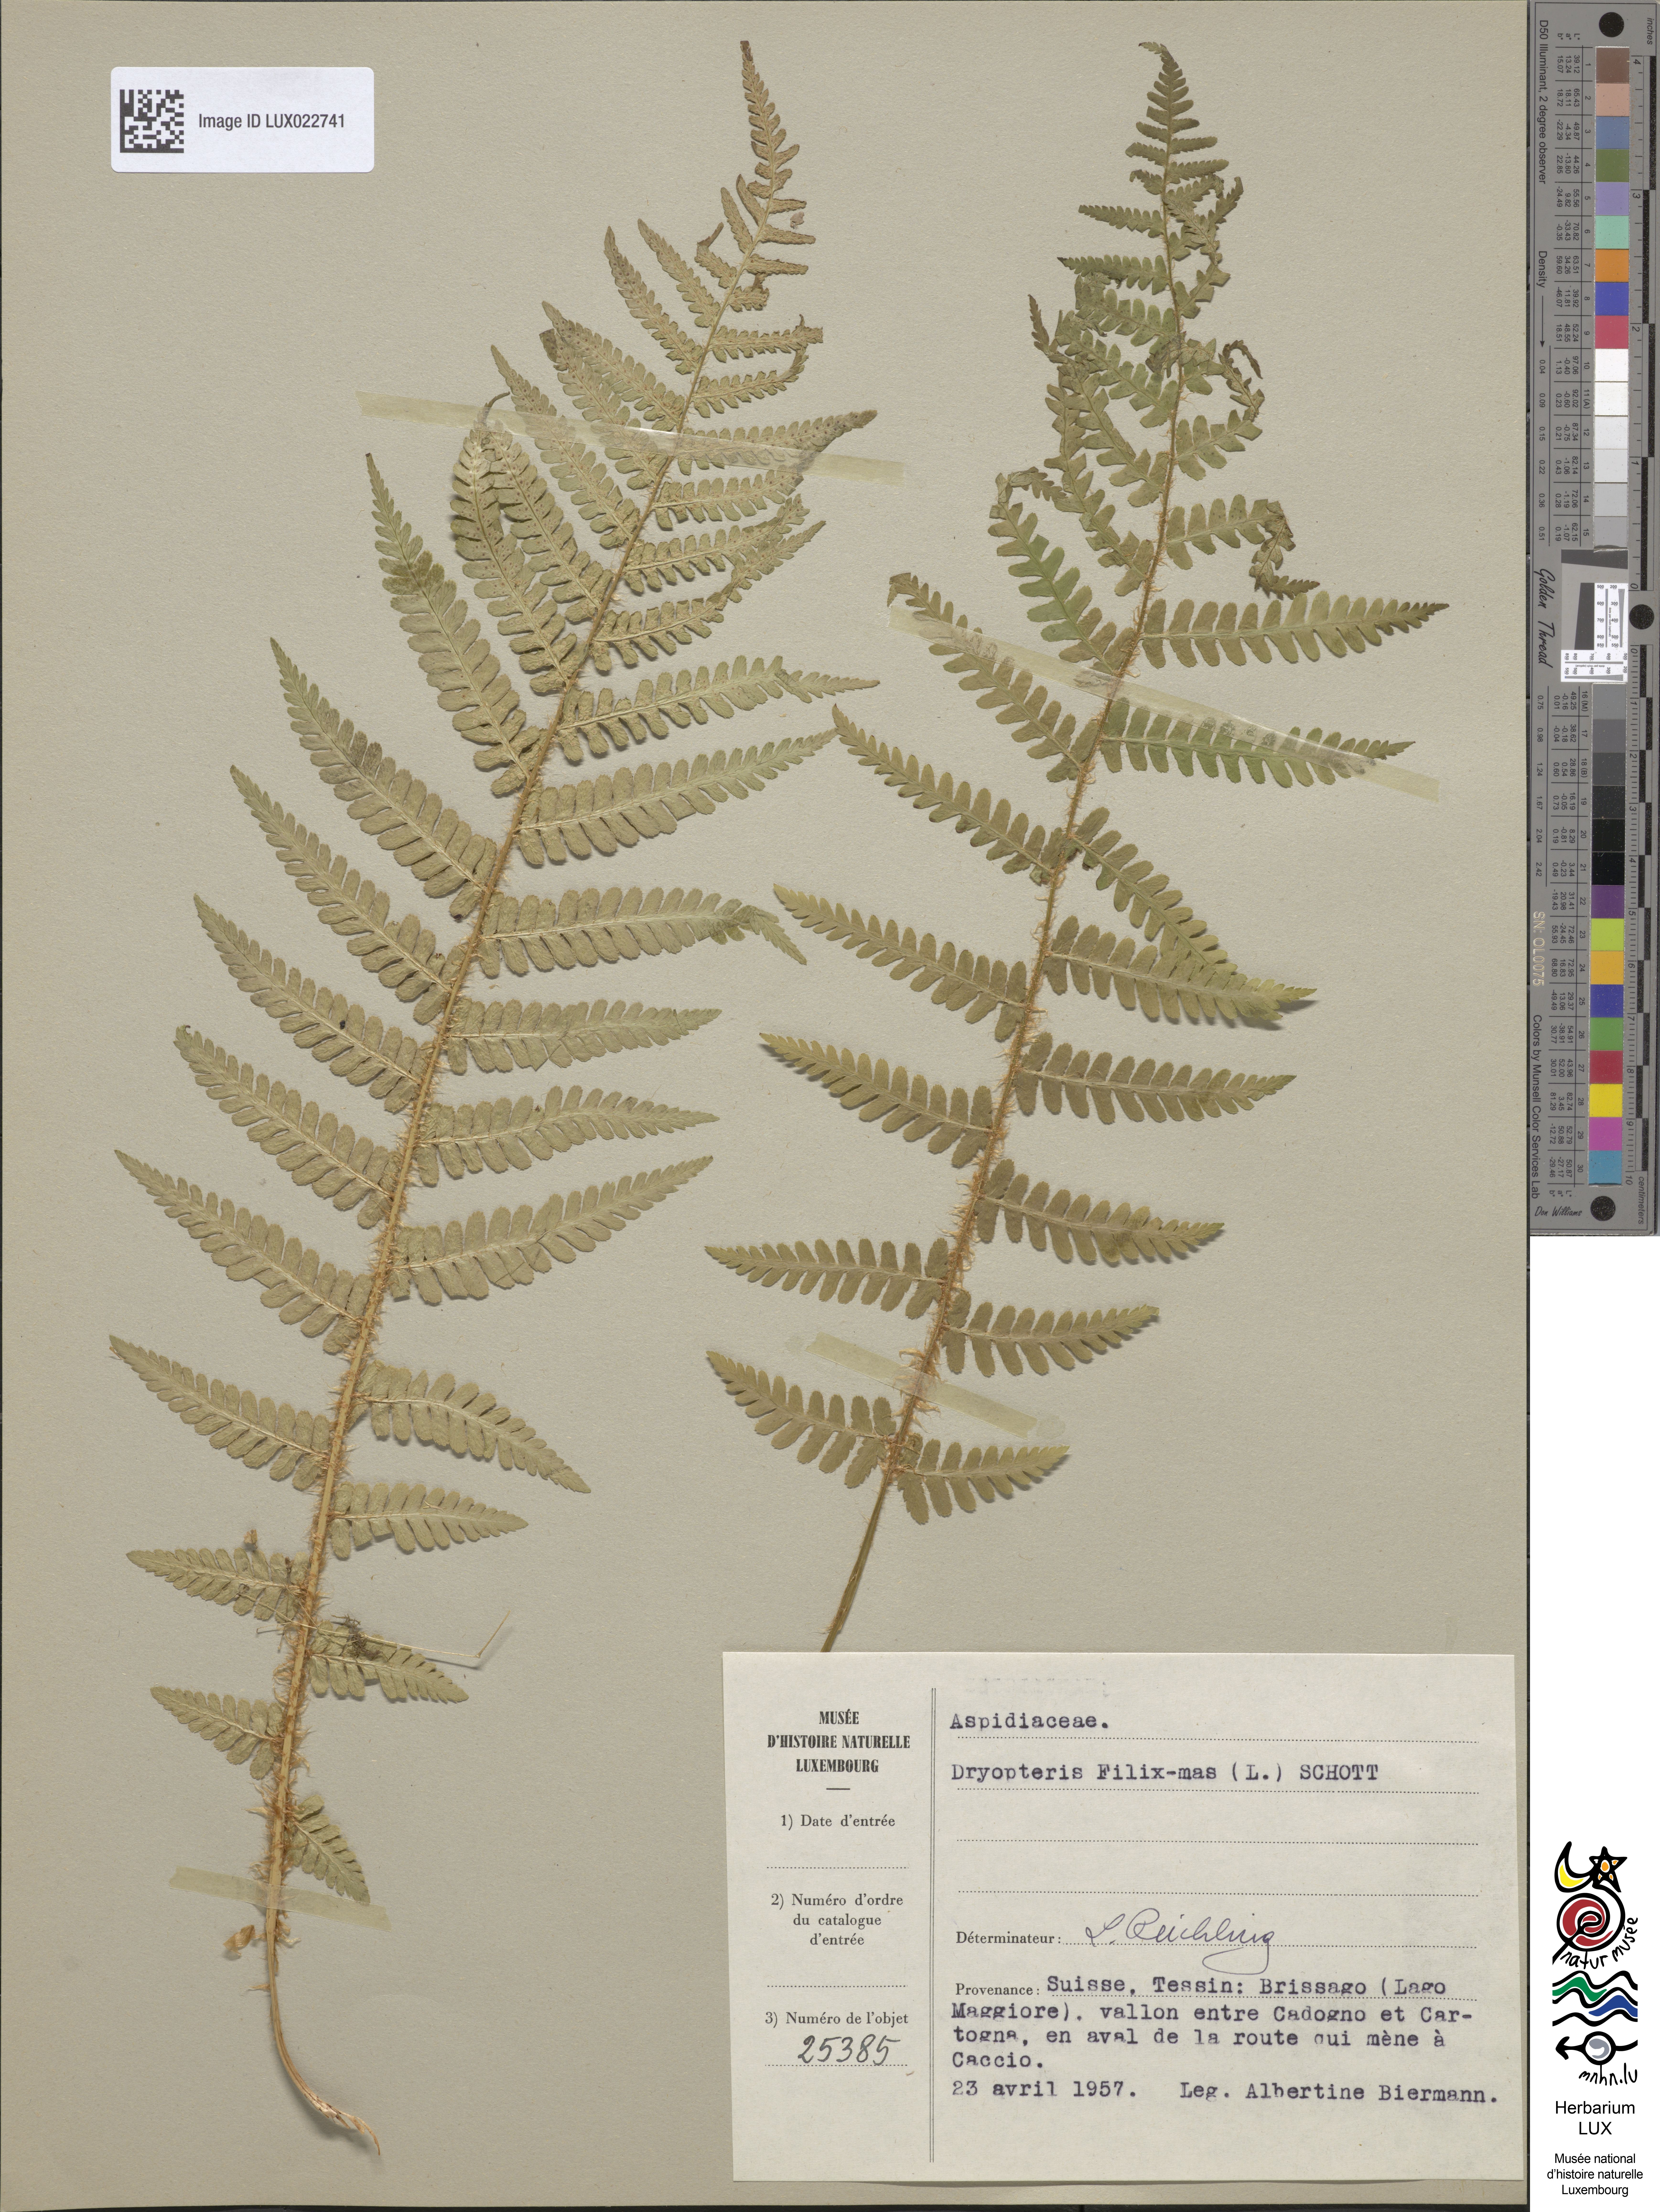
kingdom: Plantae
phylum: Tracheophyta
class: Polypodiopsida
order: Polypodiales
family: Dryopteridaceae
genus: Dryopteris
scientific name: Dryopteris filix-mas
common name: Male fern
